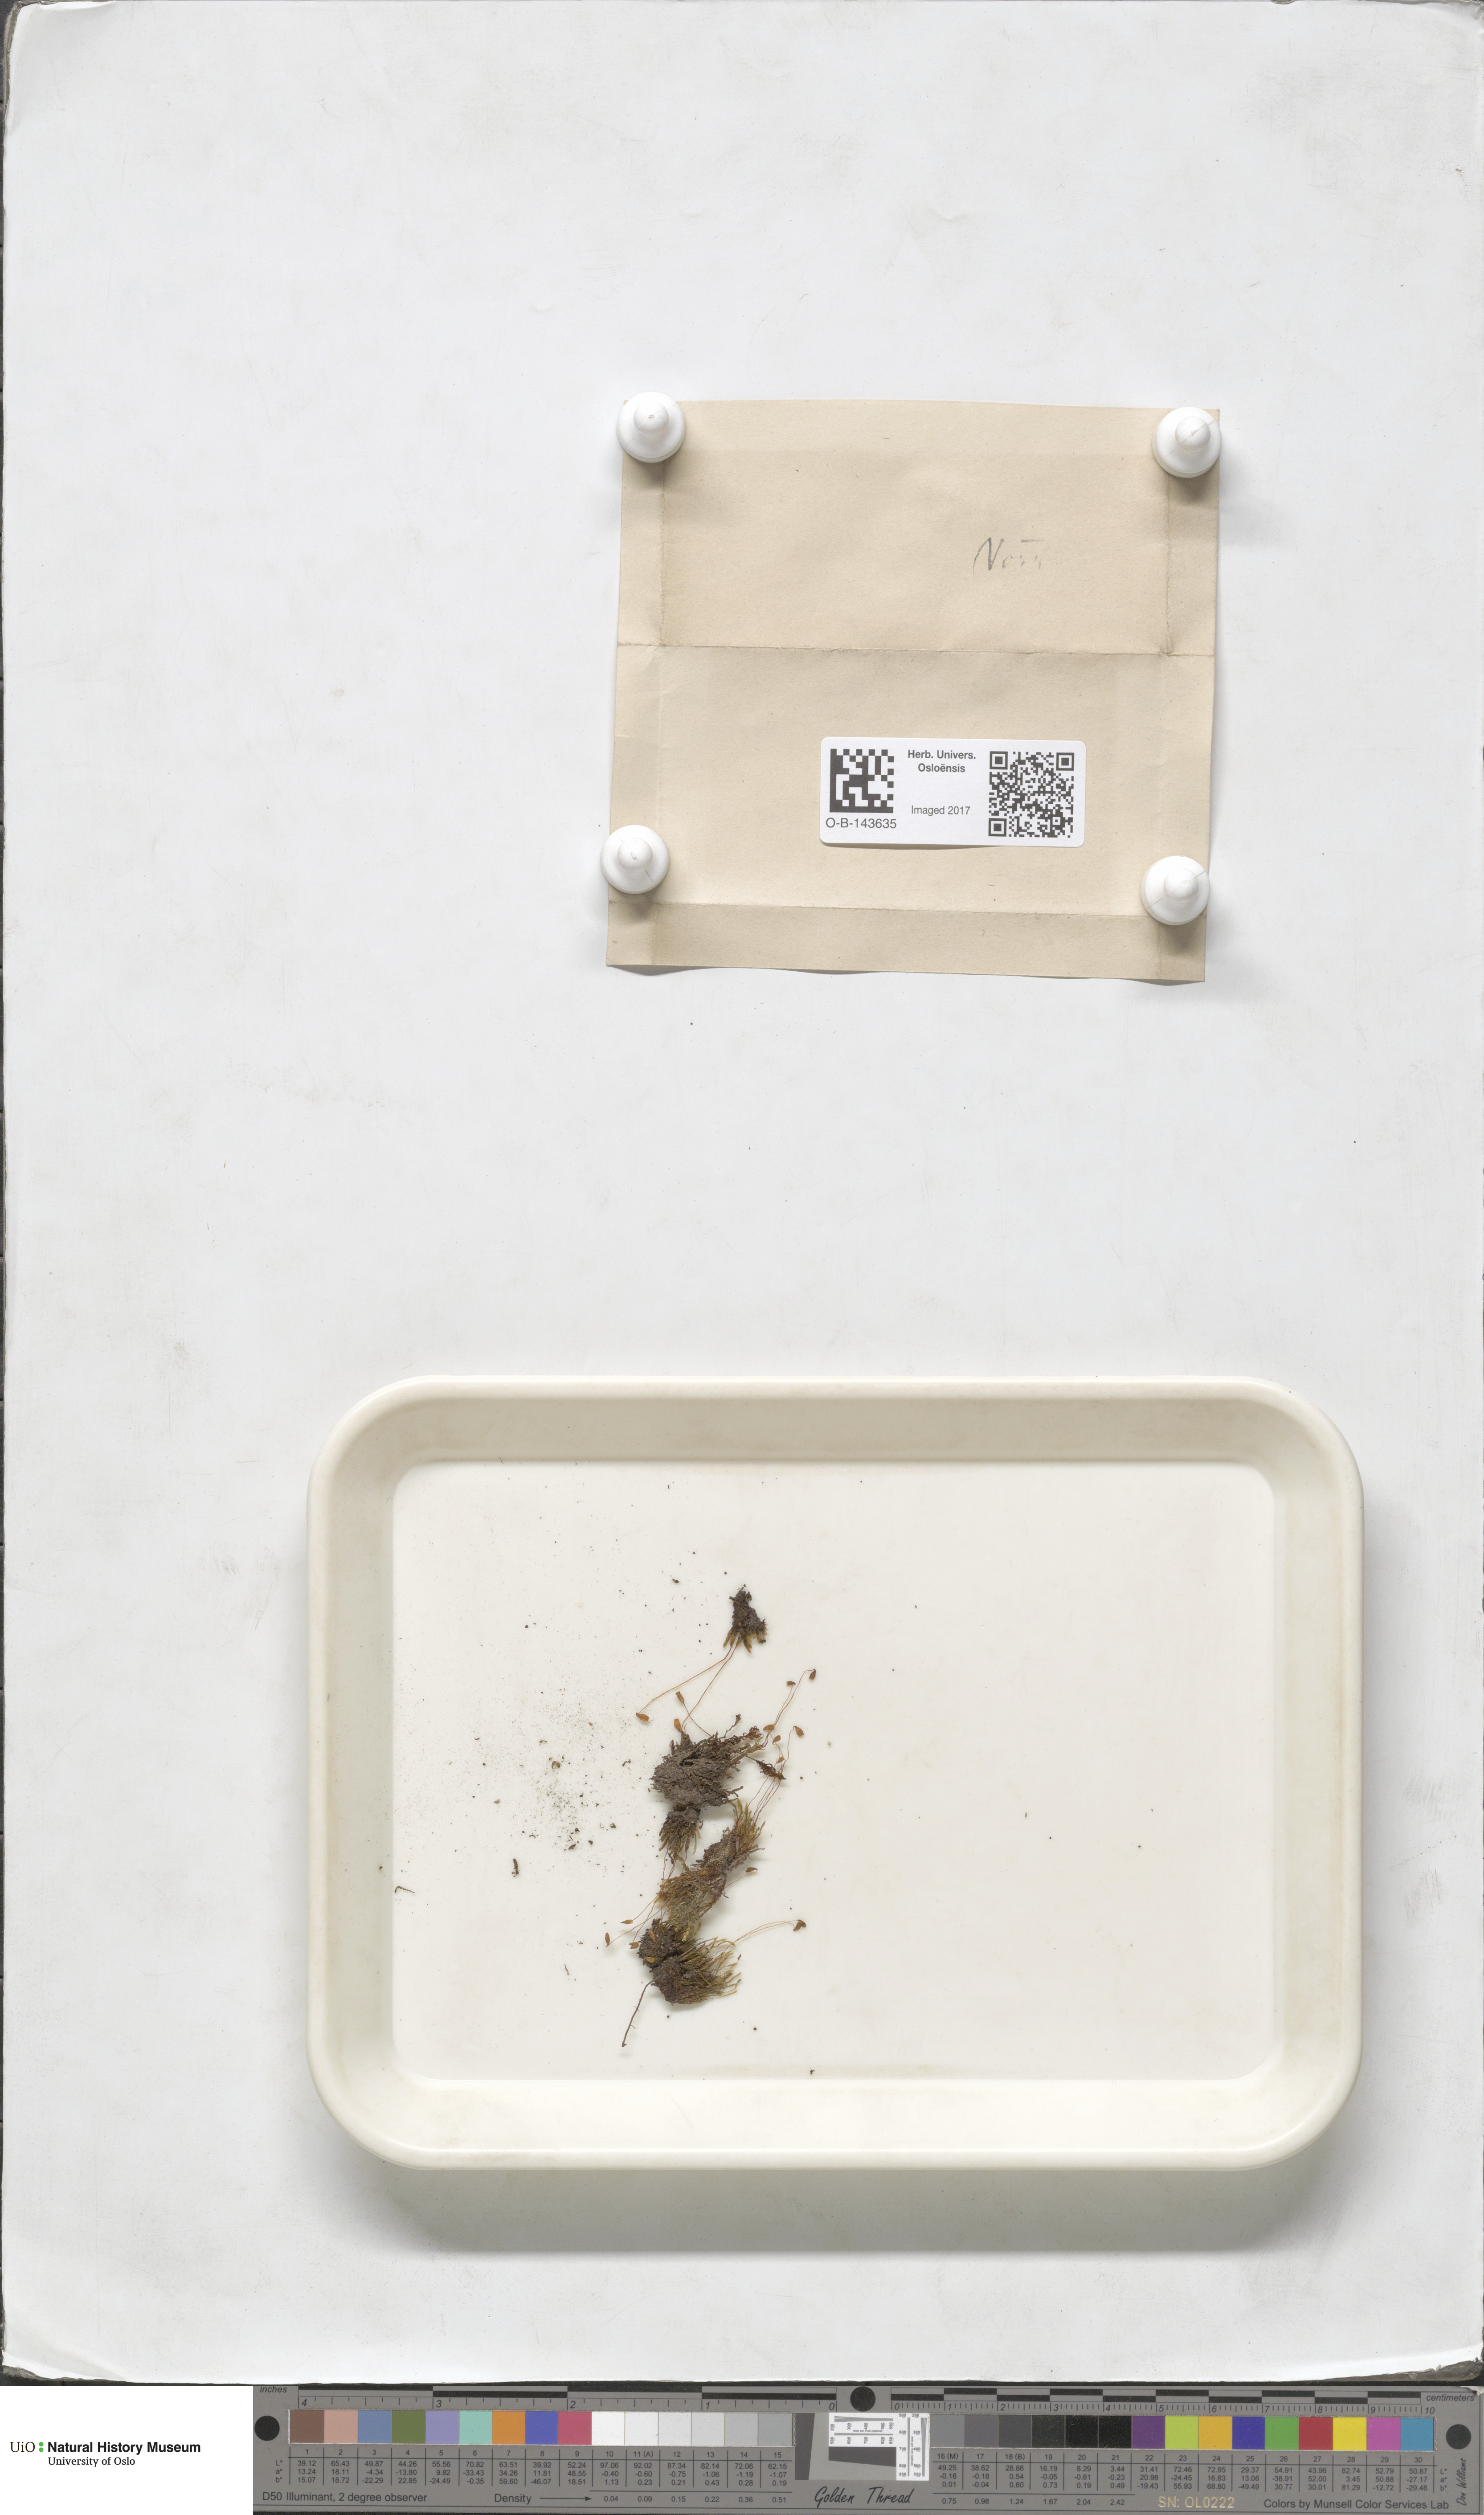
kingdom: Plantae
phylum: Bryophyta
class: Bryopsida
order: Bryales
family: Bryaceae
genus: Bryum
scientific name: Bryum
